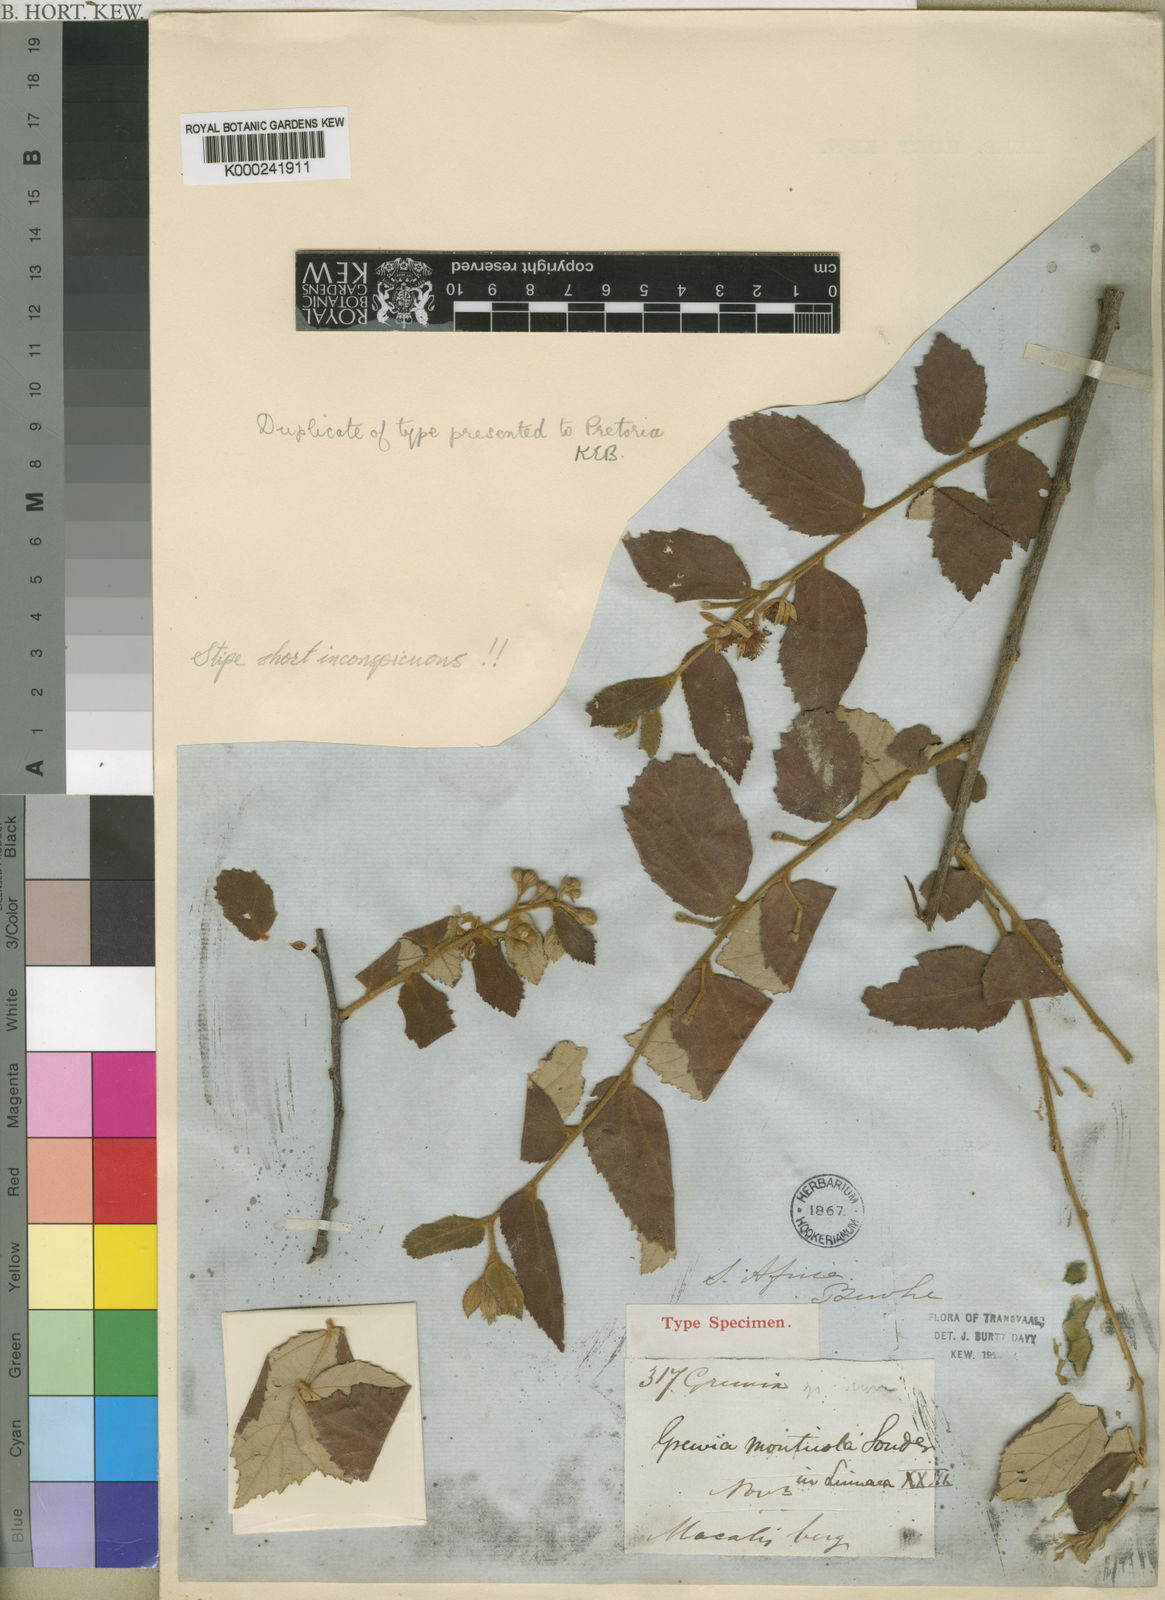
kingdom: Plantae
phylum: Tracheophyta
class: Magnoliopsida
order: Malvales
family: Malvaceae
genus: Grewia
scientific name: Grewia monticola
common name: Grey raisin
